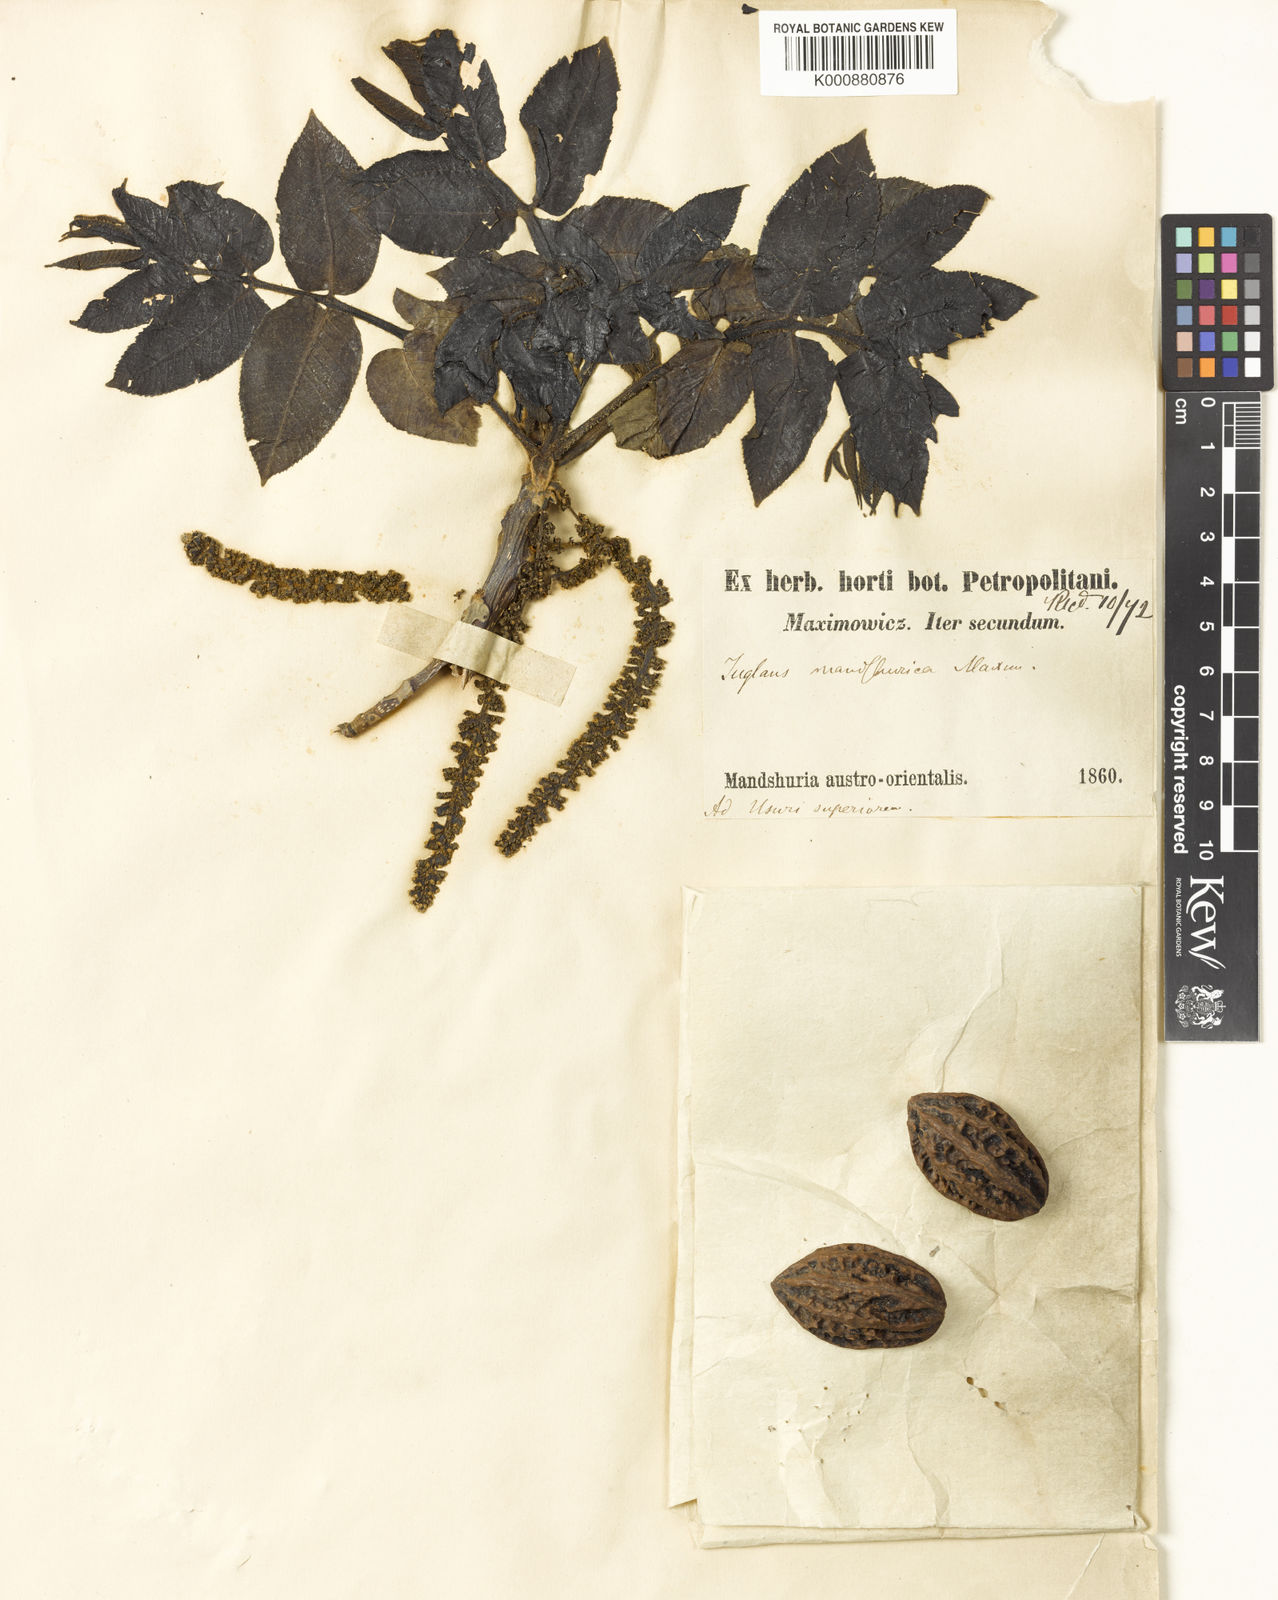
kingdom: Plantae
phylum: Tracheophyta
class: Magnoliopsida
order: Fagales
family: Juglandaceae
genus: Juglans
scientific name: Juglans mandshurica
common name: Manchurian walnut
